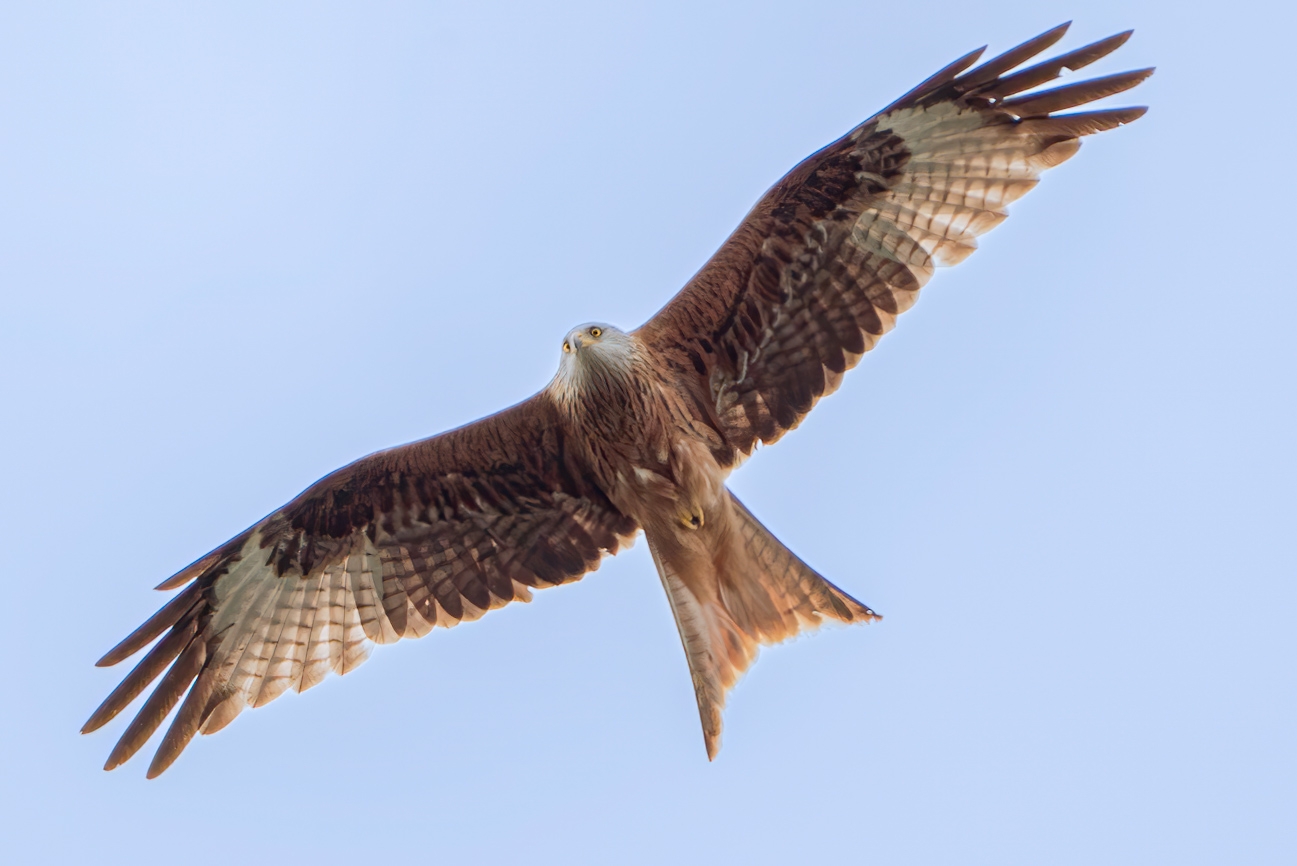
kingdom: Animalia
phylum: Chordata
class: Aves
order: Accipitriformes
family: Accipitridae
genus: Milvus
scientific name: Milvus milvus
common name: Rød glente
